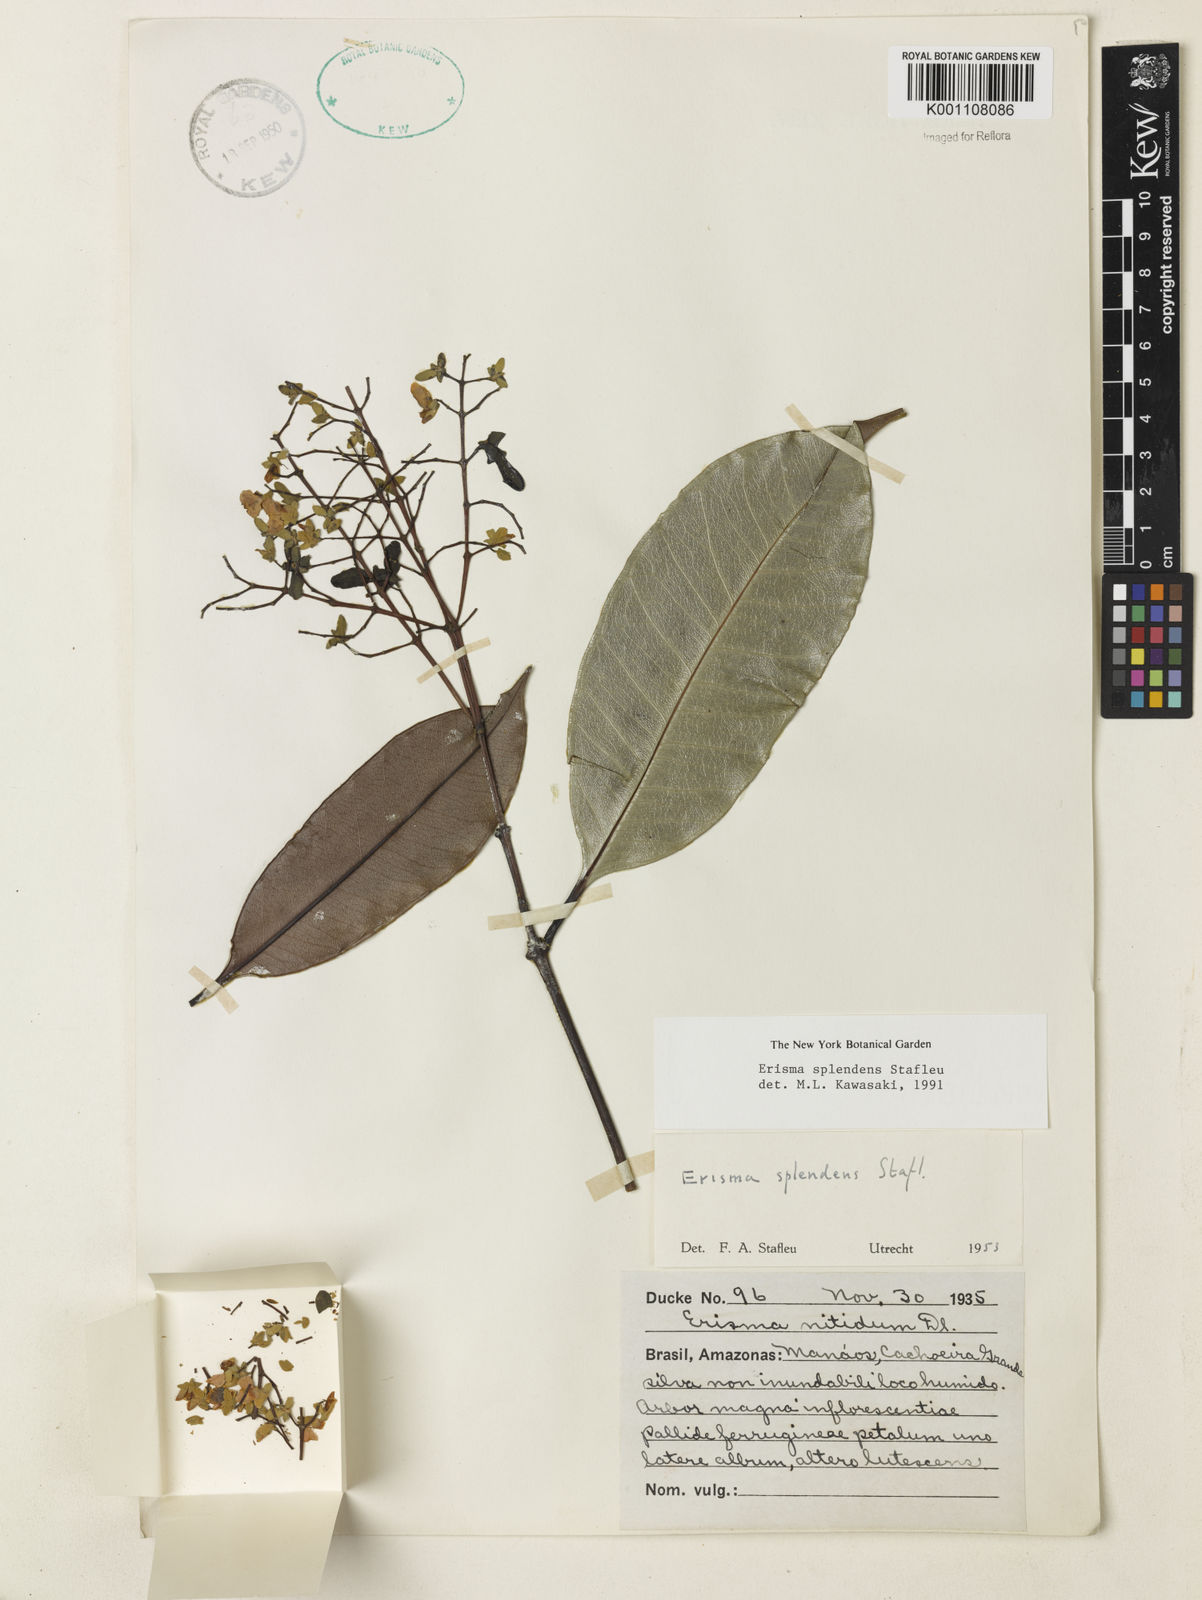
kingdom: Plantae
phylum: Tracheophyta
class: Magnoliopsida
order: Myrtales
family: Vochysiaceae
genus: Erisma
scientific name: Erisma splendens
